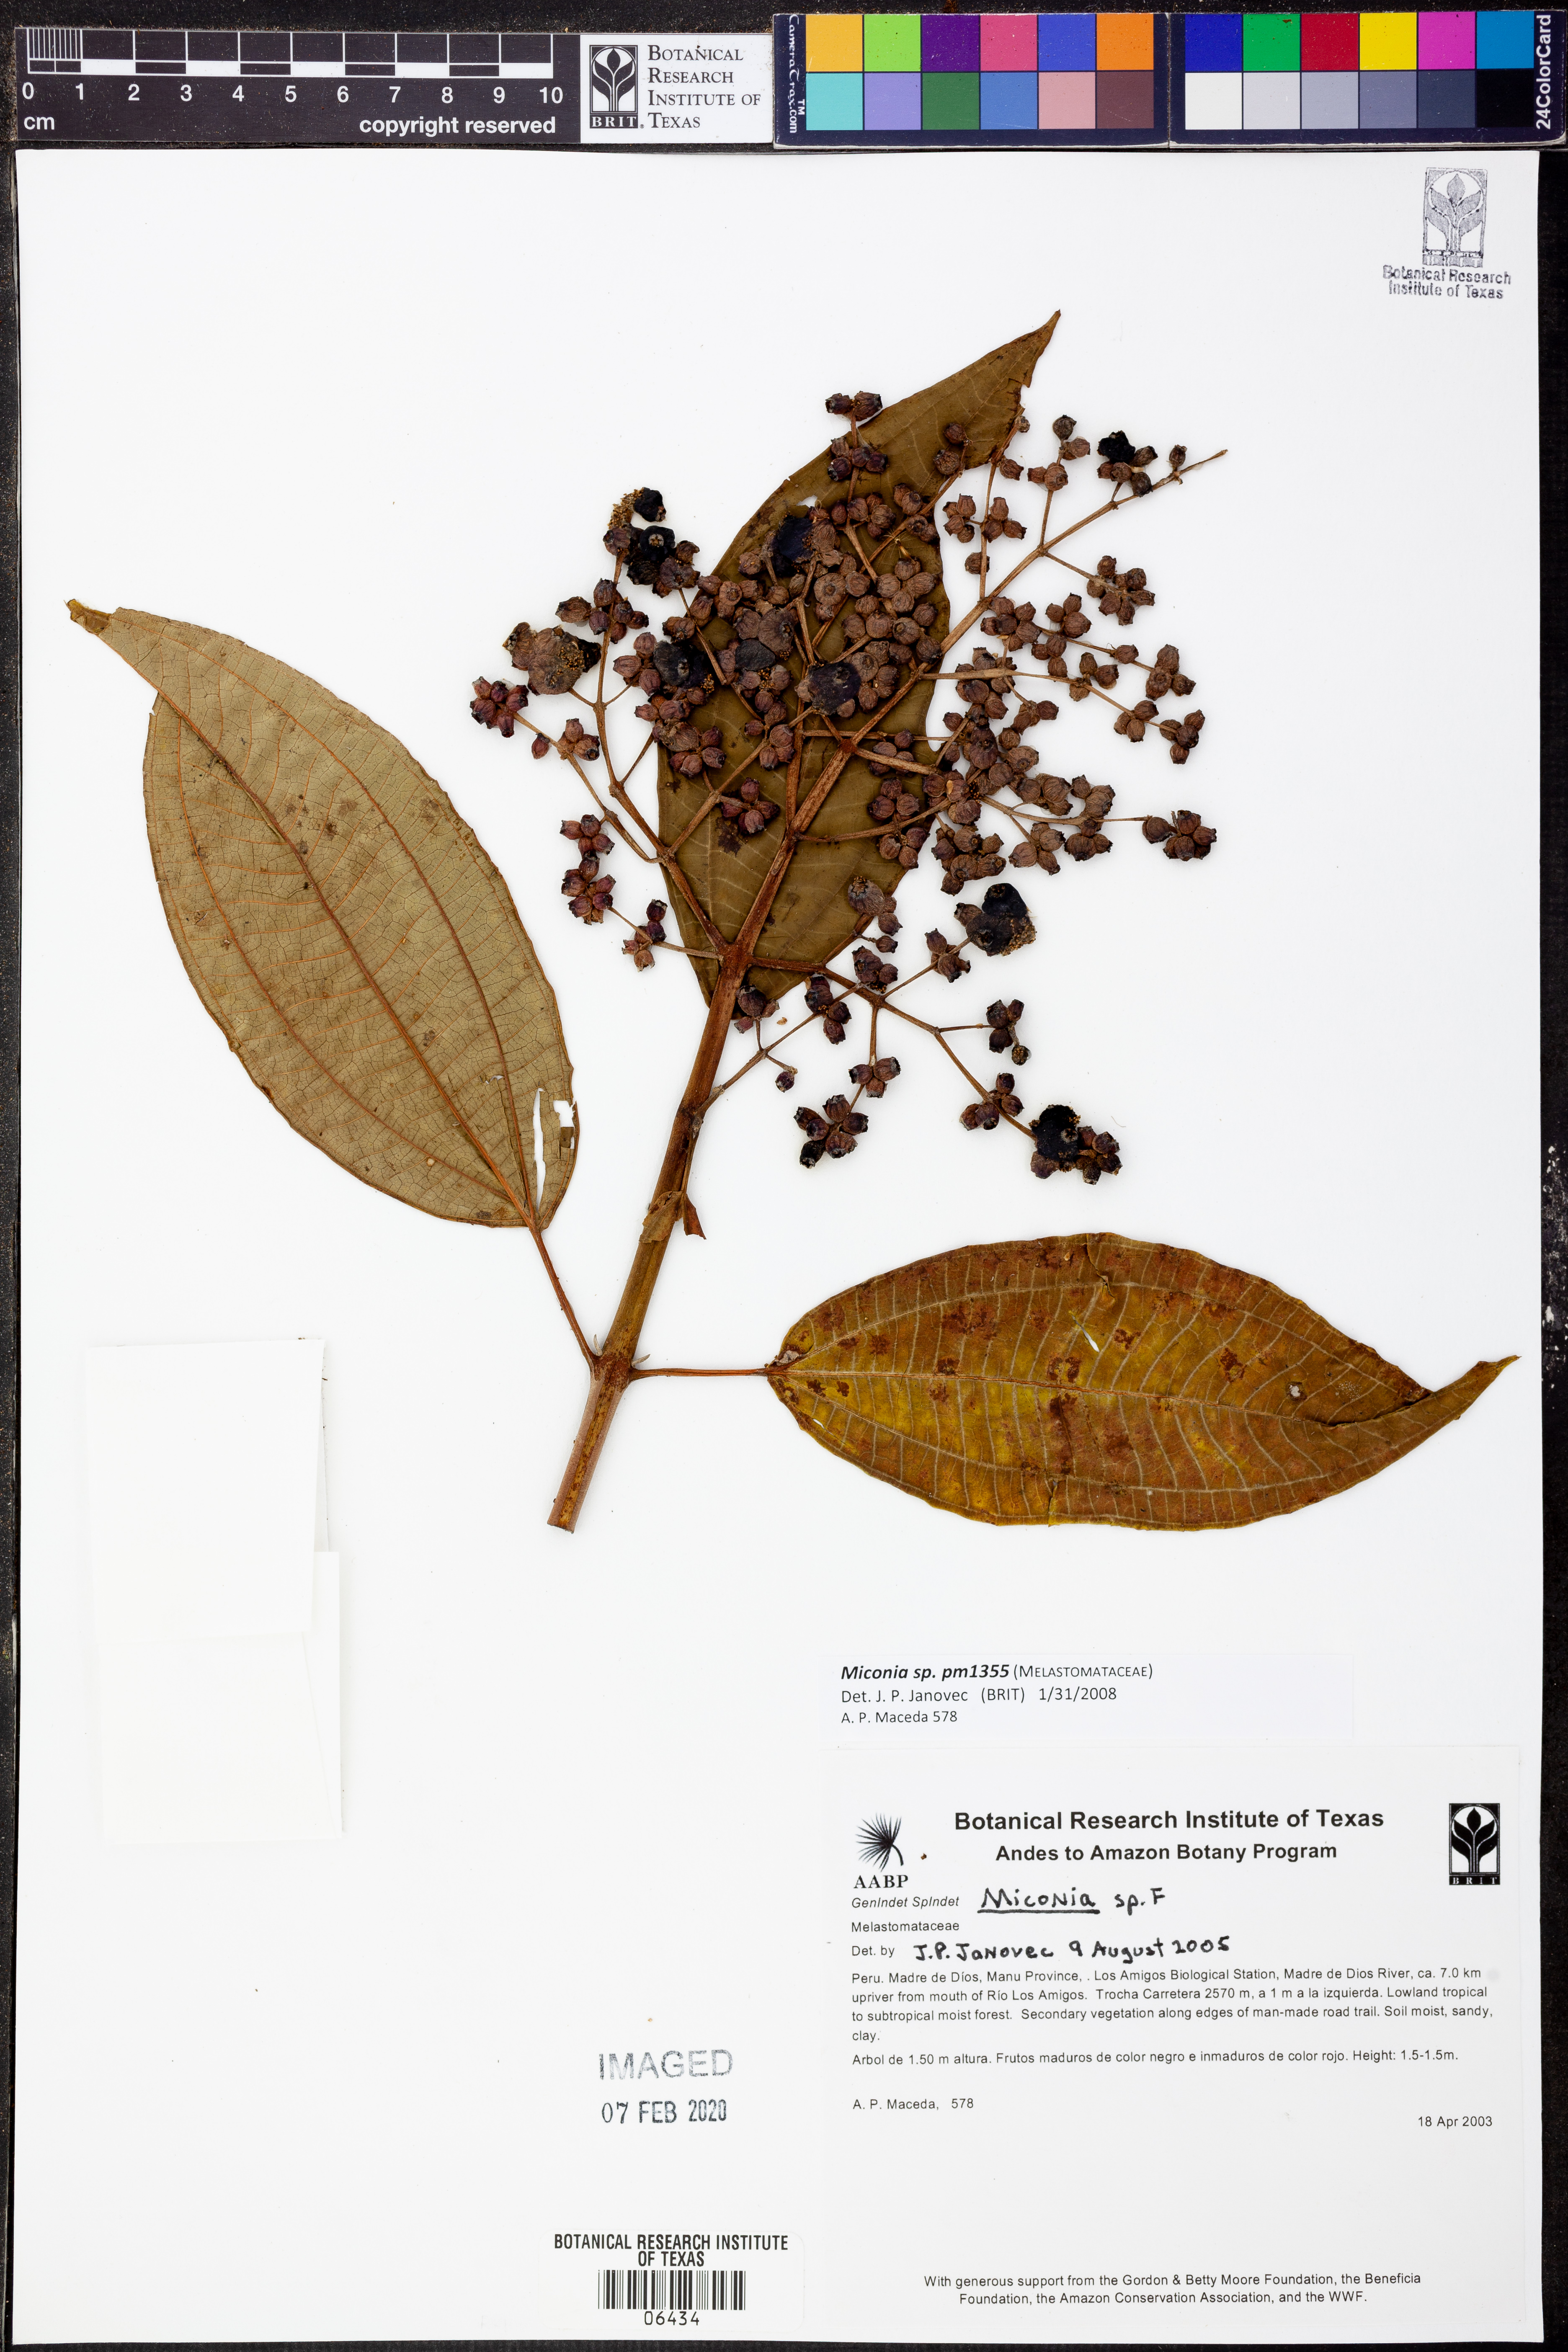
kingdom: Plantae
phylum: Tracheophyta
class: Magnoliopsida
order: Myrtales
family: Melastomataceae
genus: Miconia
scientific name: Miconia
